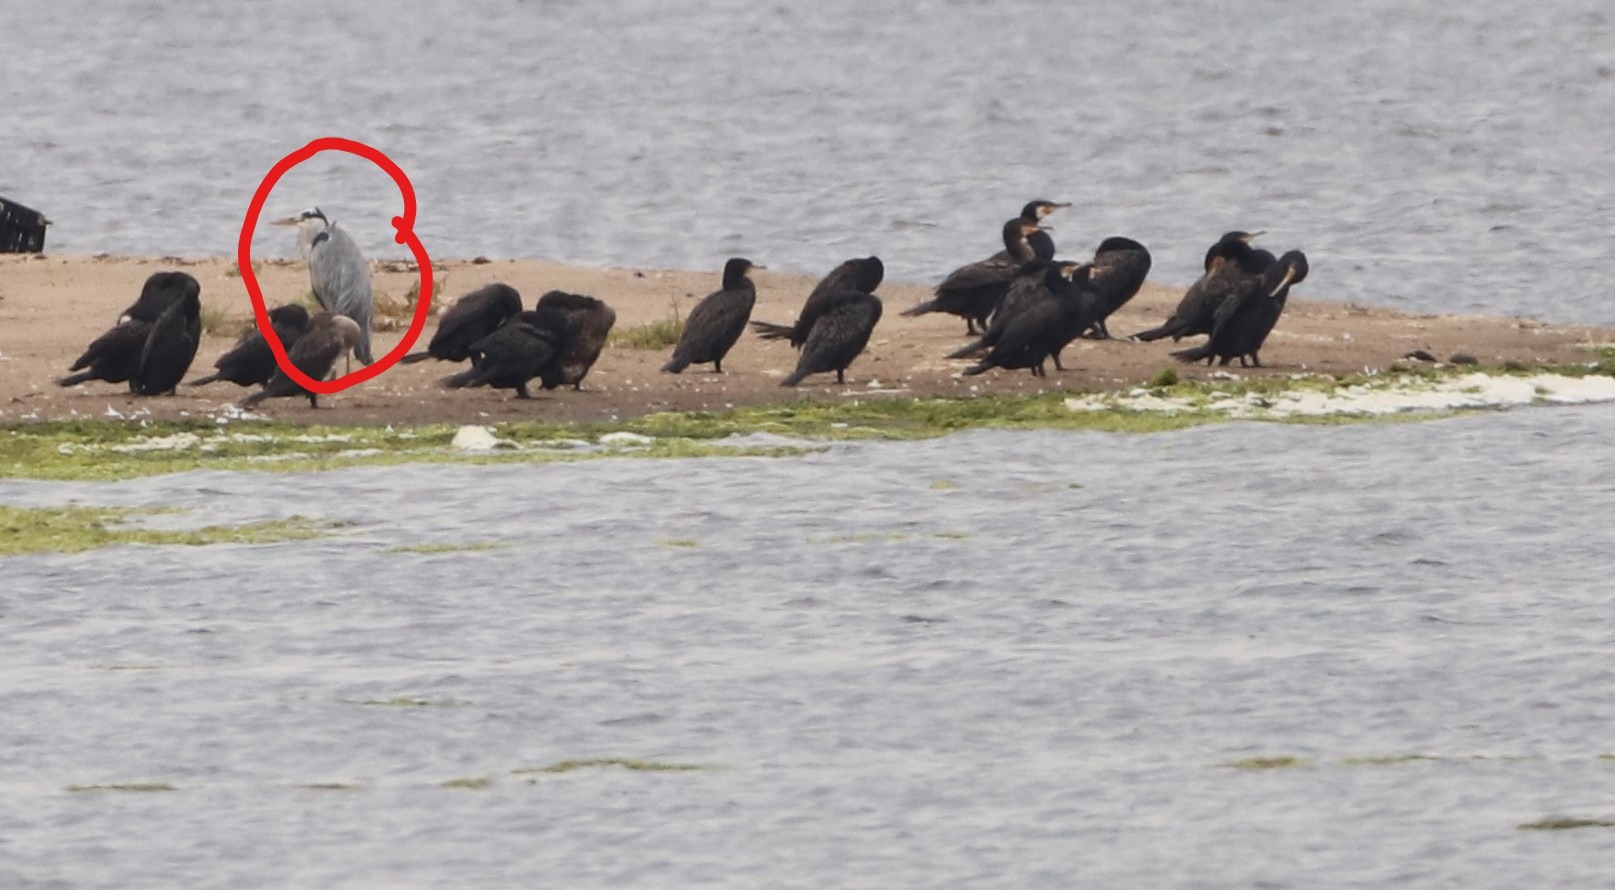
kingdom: Animalia
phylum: Chordata
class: Aves
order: Pelecaniformes
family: Ardeidae
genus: Ardea
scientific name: Ardea cinerea
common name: Fiskehejre
